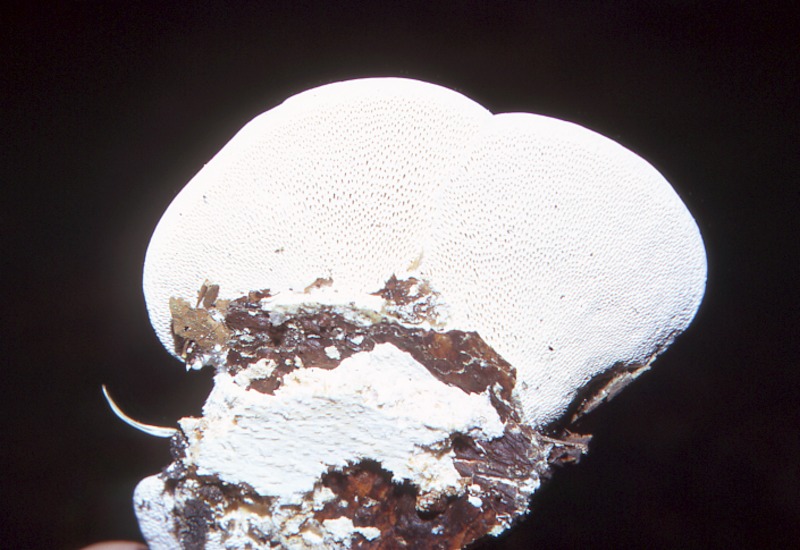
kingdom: Plantae
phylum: Tracheophyta
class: Magnoliopsida
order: Fagales
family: Betulaceae
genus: Betula
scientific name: Betula
